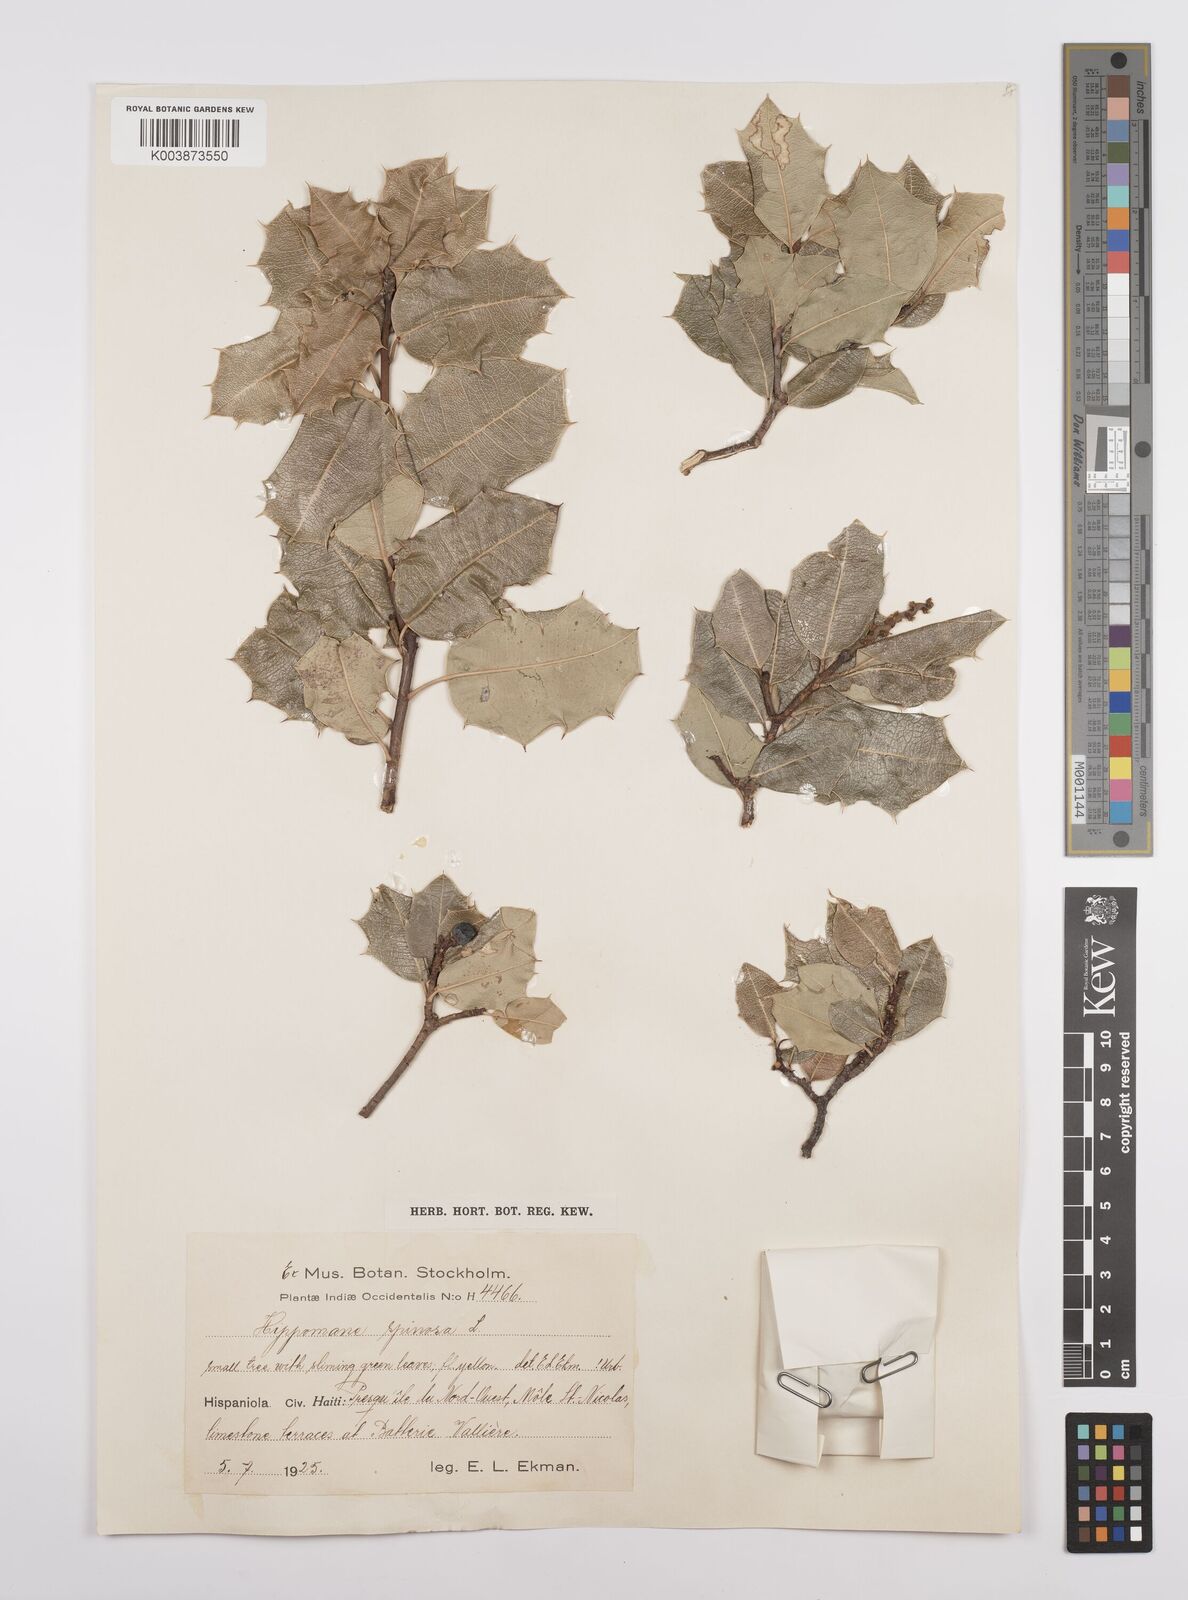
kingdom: Plantae
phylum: Tracheophyta
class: Magnoliopsida
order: Malpighiales
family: Euphorbiaceae
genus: Hippomane
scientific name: Hippomane spinosa
